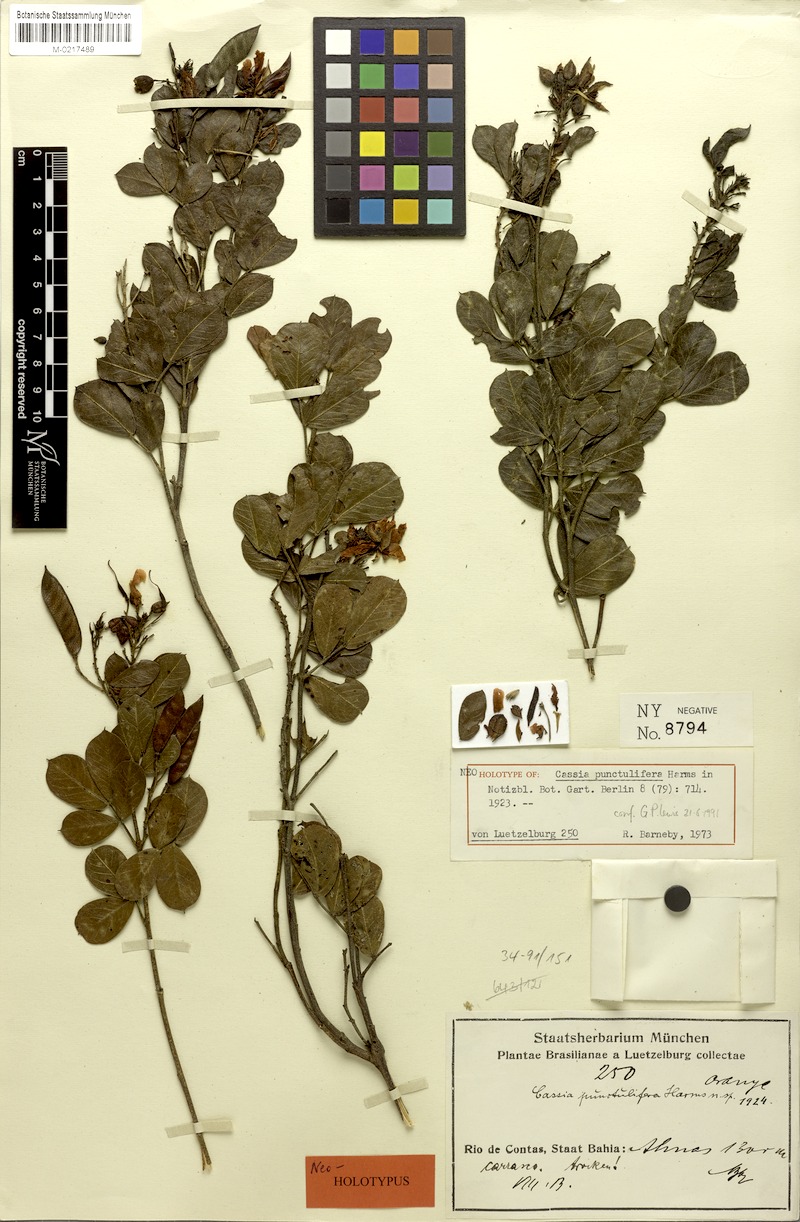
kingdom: Plantae
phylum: Tracheophyta
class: Magnoliopsida
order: Fabales
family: Fabaceae
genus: Chamaecrista
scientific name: Chamaecrista punctulifera
